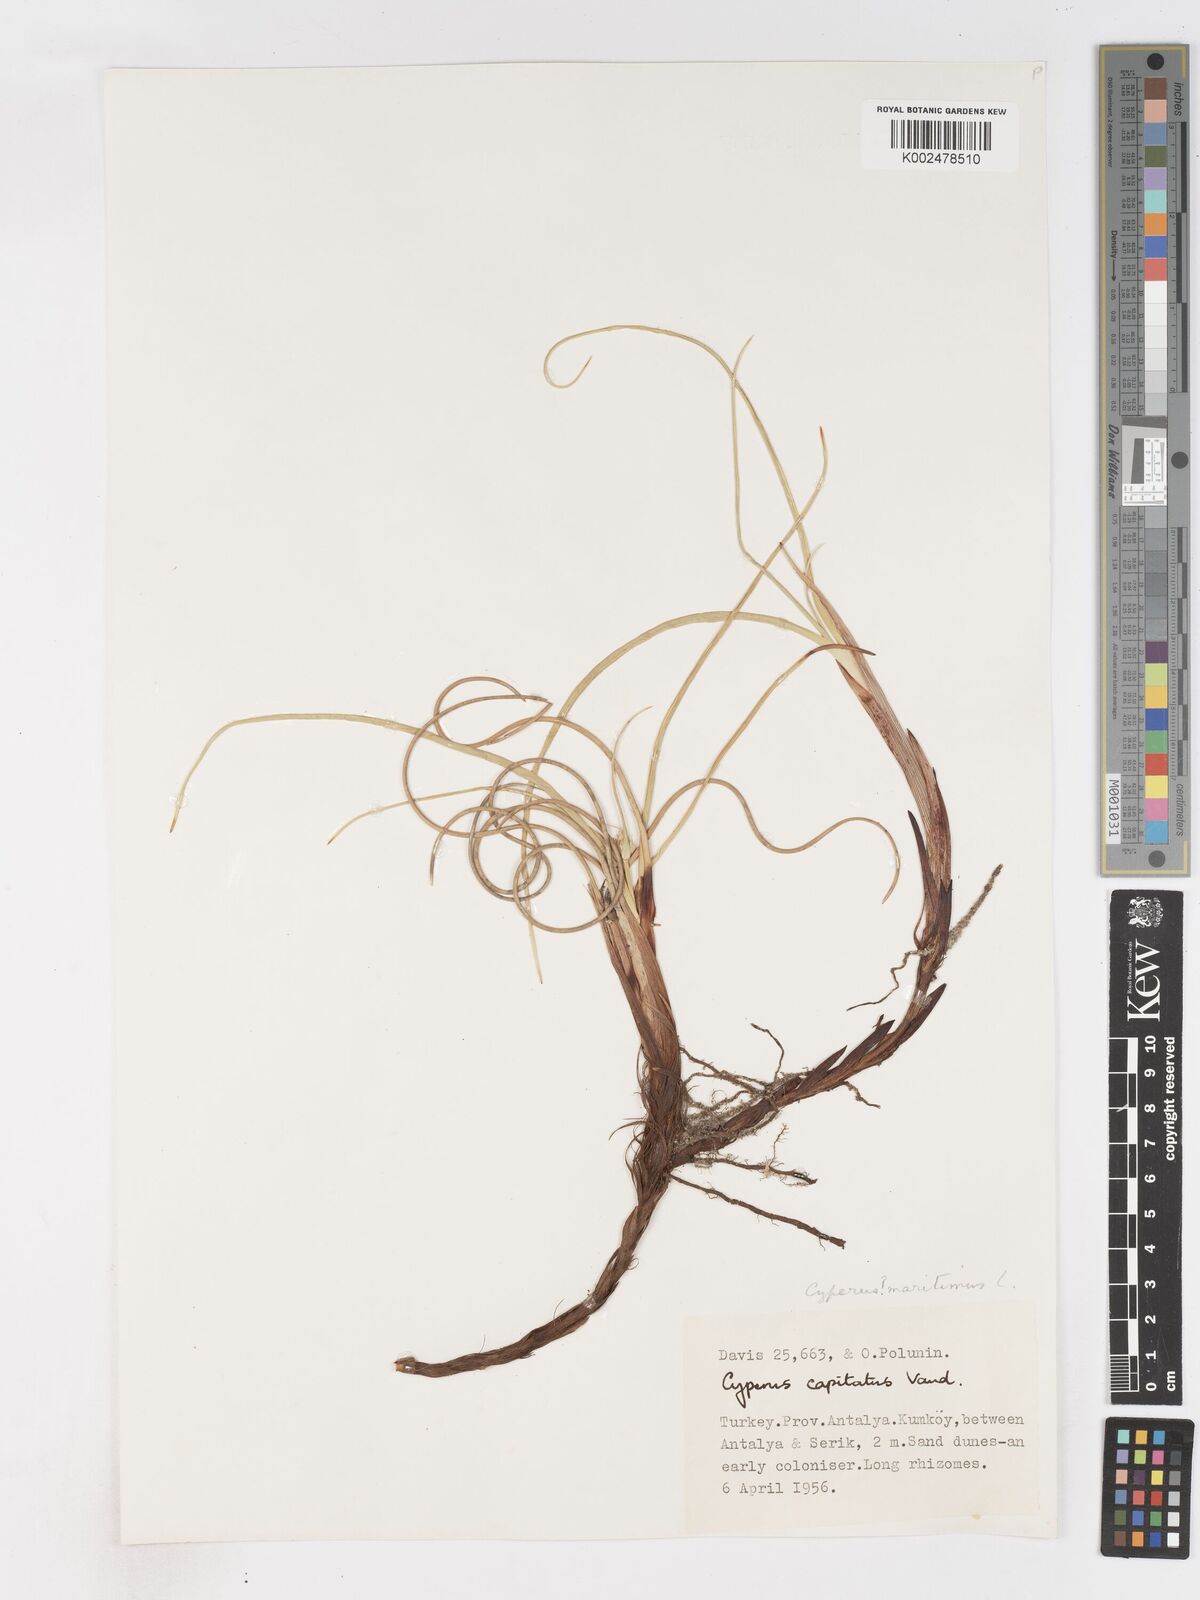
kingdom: Plantae
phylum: Tracheophyta
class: Liliopsida
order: Poales
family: Cyperaceae
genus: Cyperus
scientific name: Cyperus capitatus
